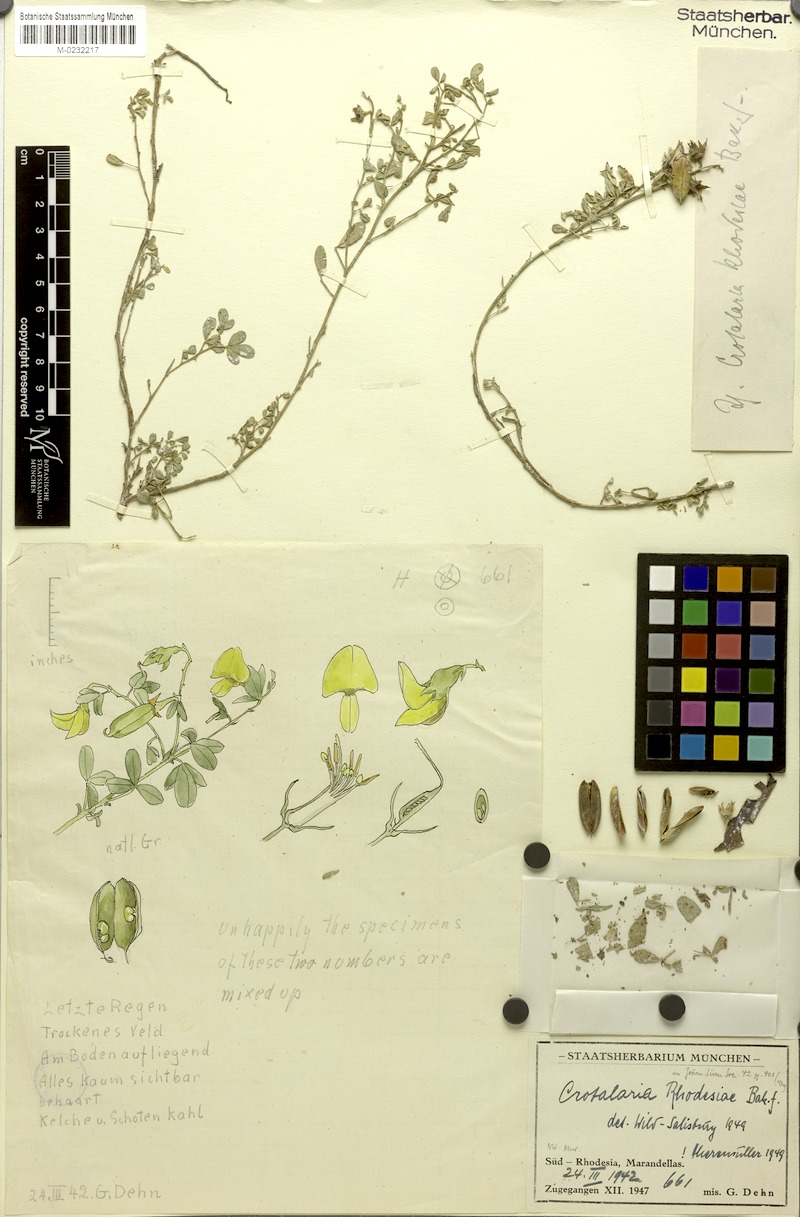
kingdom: Plantae
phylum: Tracheophyta
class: Magnoliopsida
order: Fabales
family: Fabaceae
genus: Crotalaria
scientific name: Crotalaria rhodesiae
